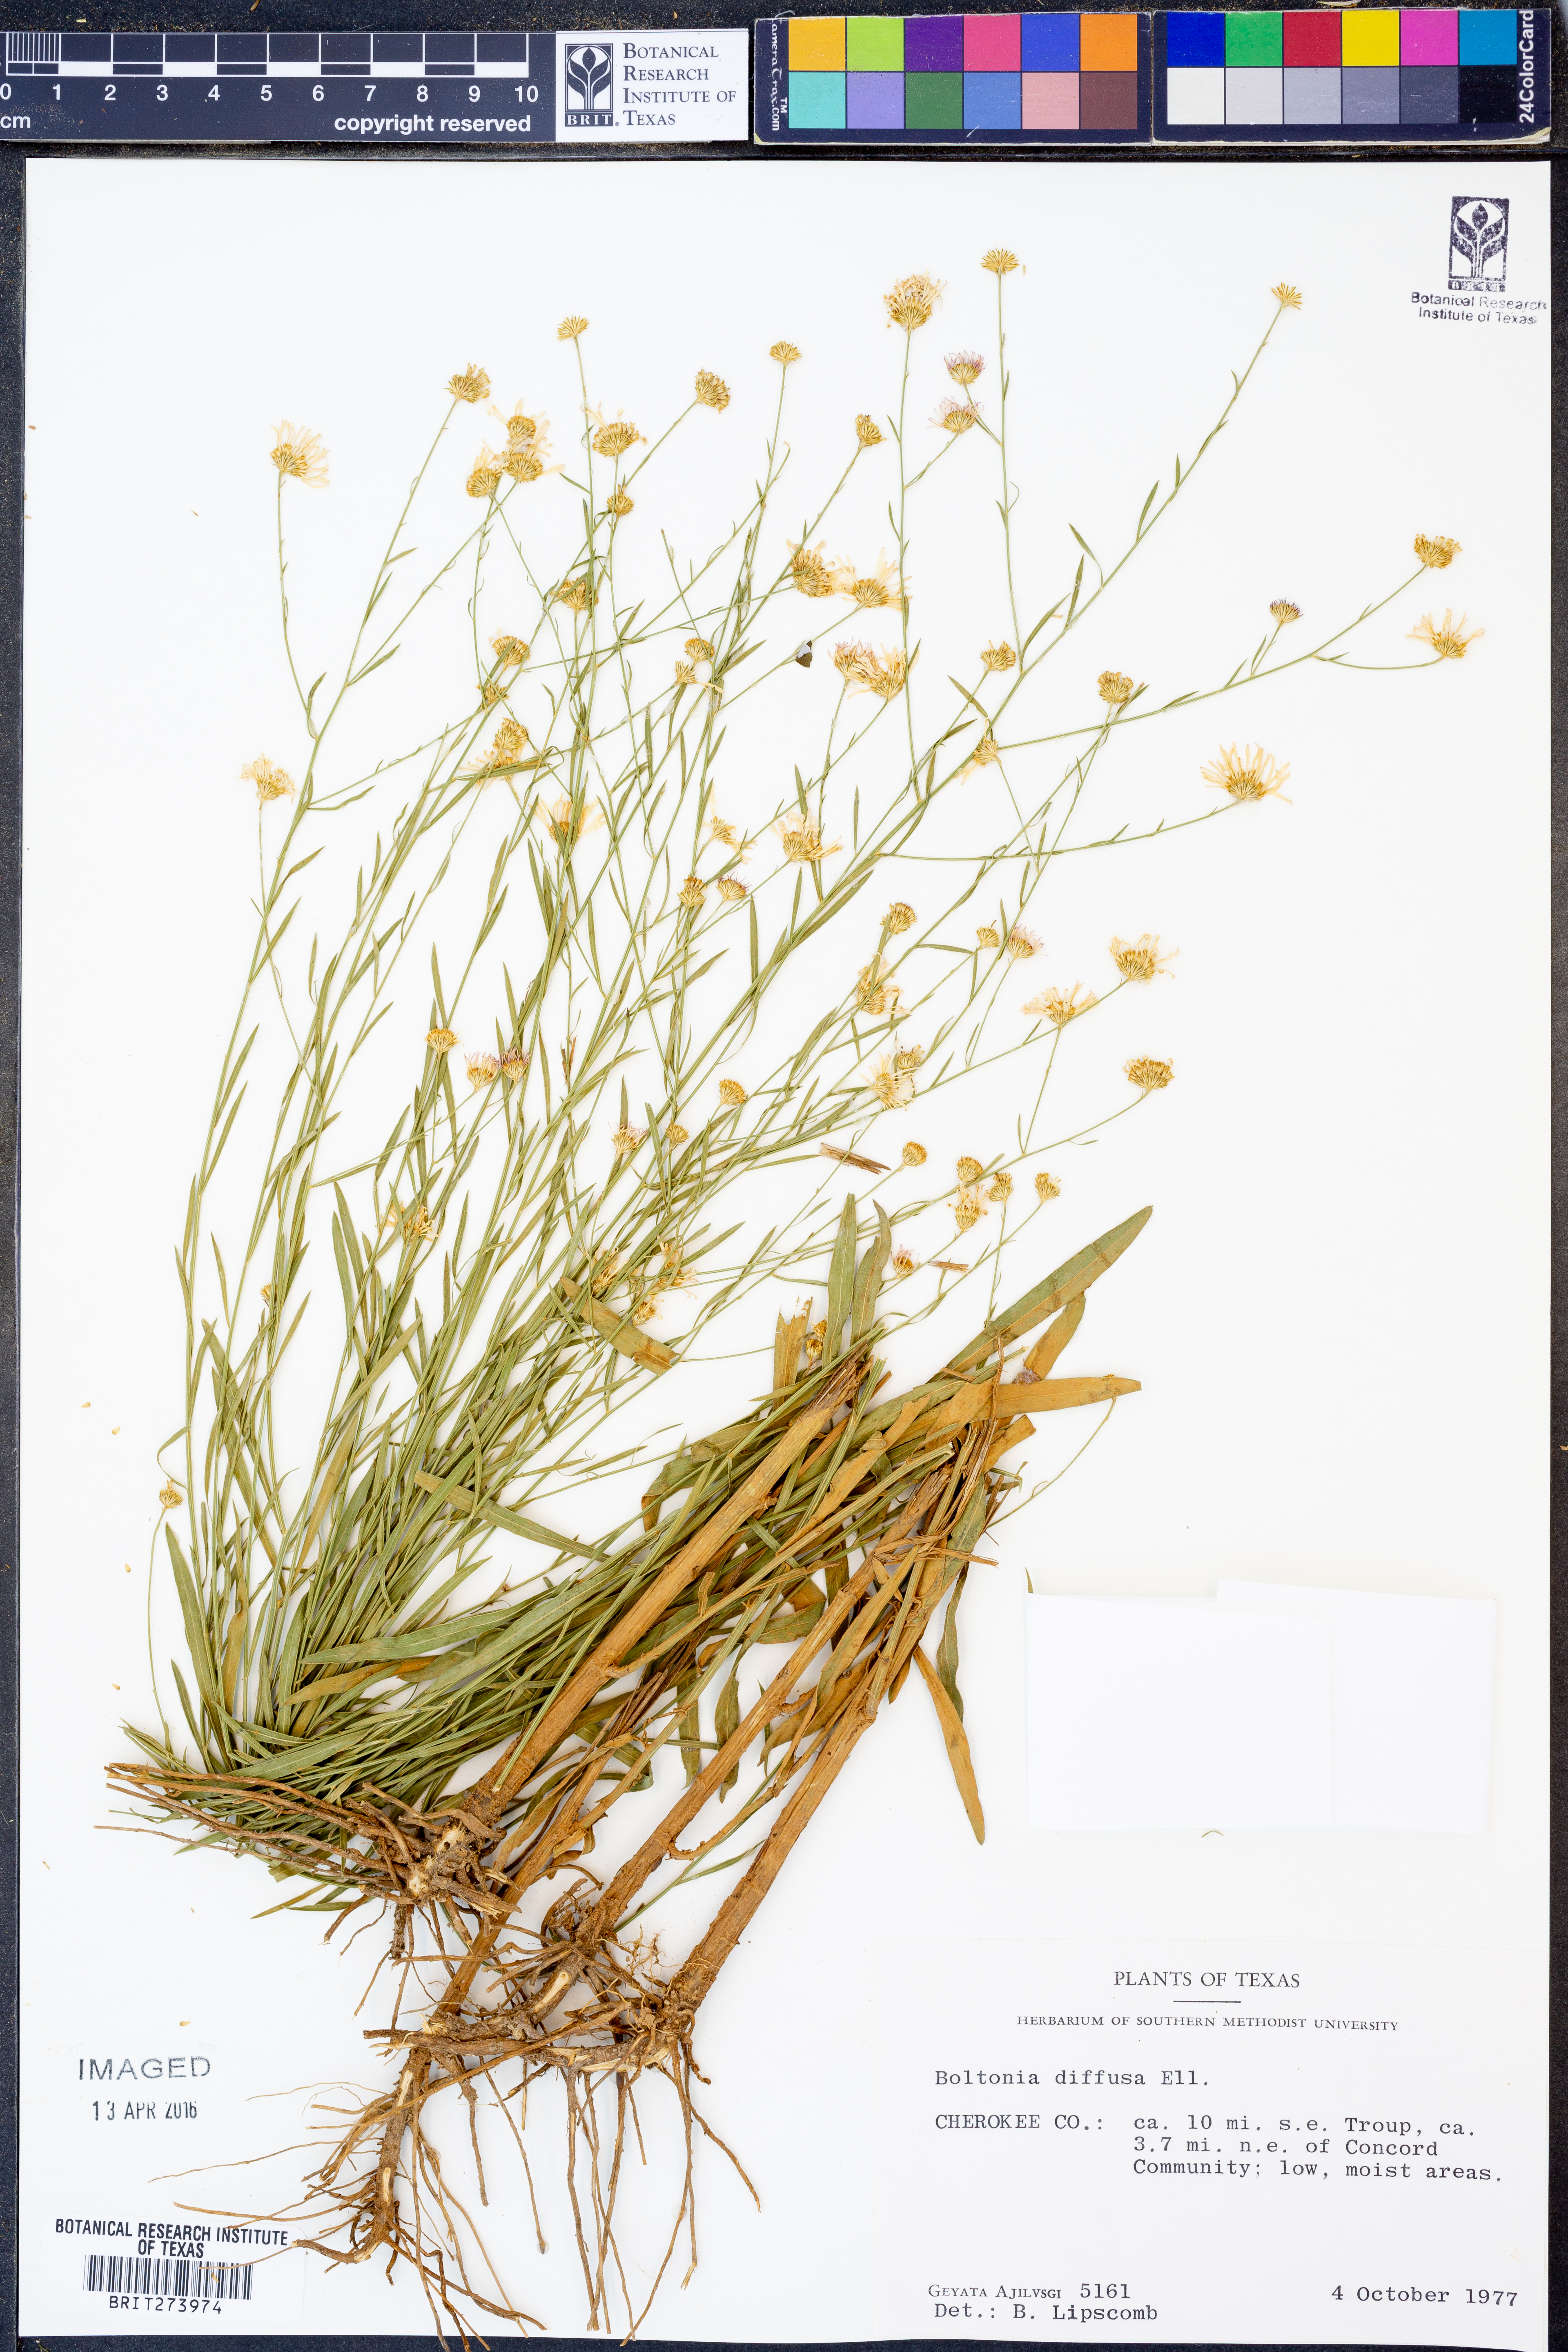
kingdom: Plantae
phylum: Tracheophyta
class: Magnoliopsida
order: Asterales
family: Asteraceae
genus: Boltonia
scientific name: Boltonia diffusa
